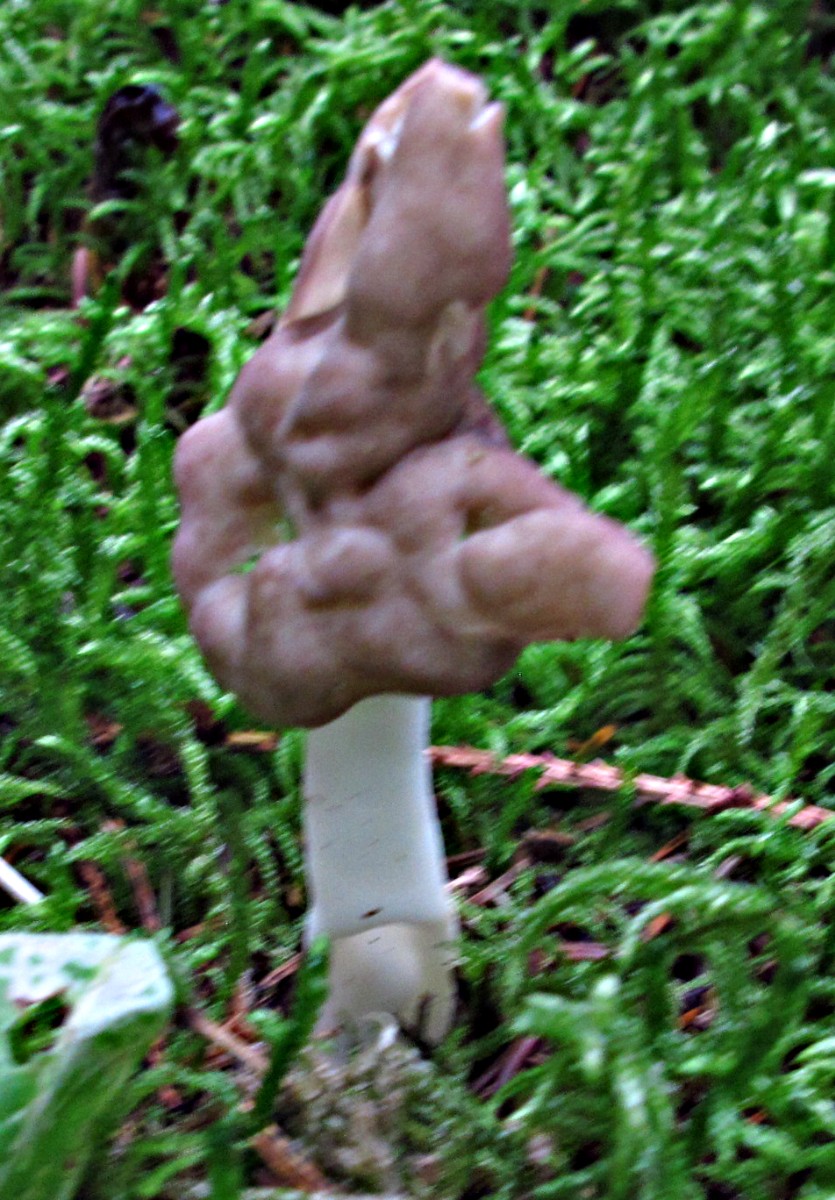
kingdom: Fungi
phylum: Ascomycota
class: Pezizomycetes
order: Pezizales
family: Helvellaceae
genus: Helvella
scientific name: Helvella elastica
